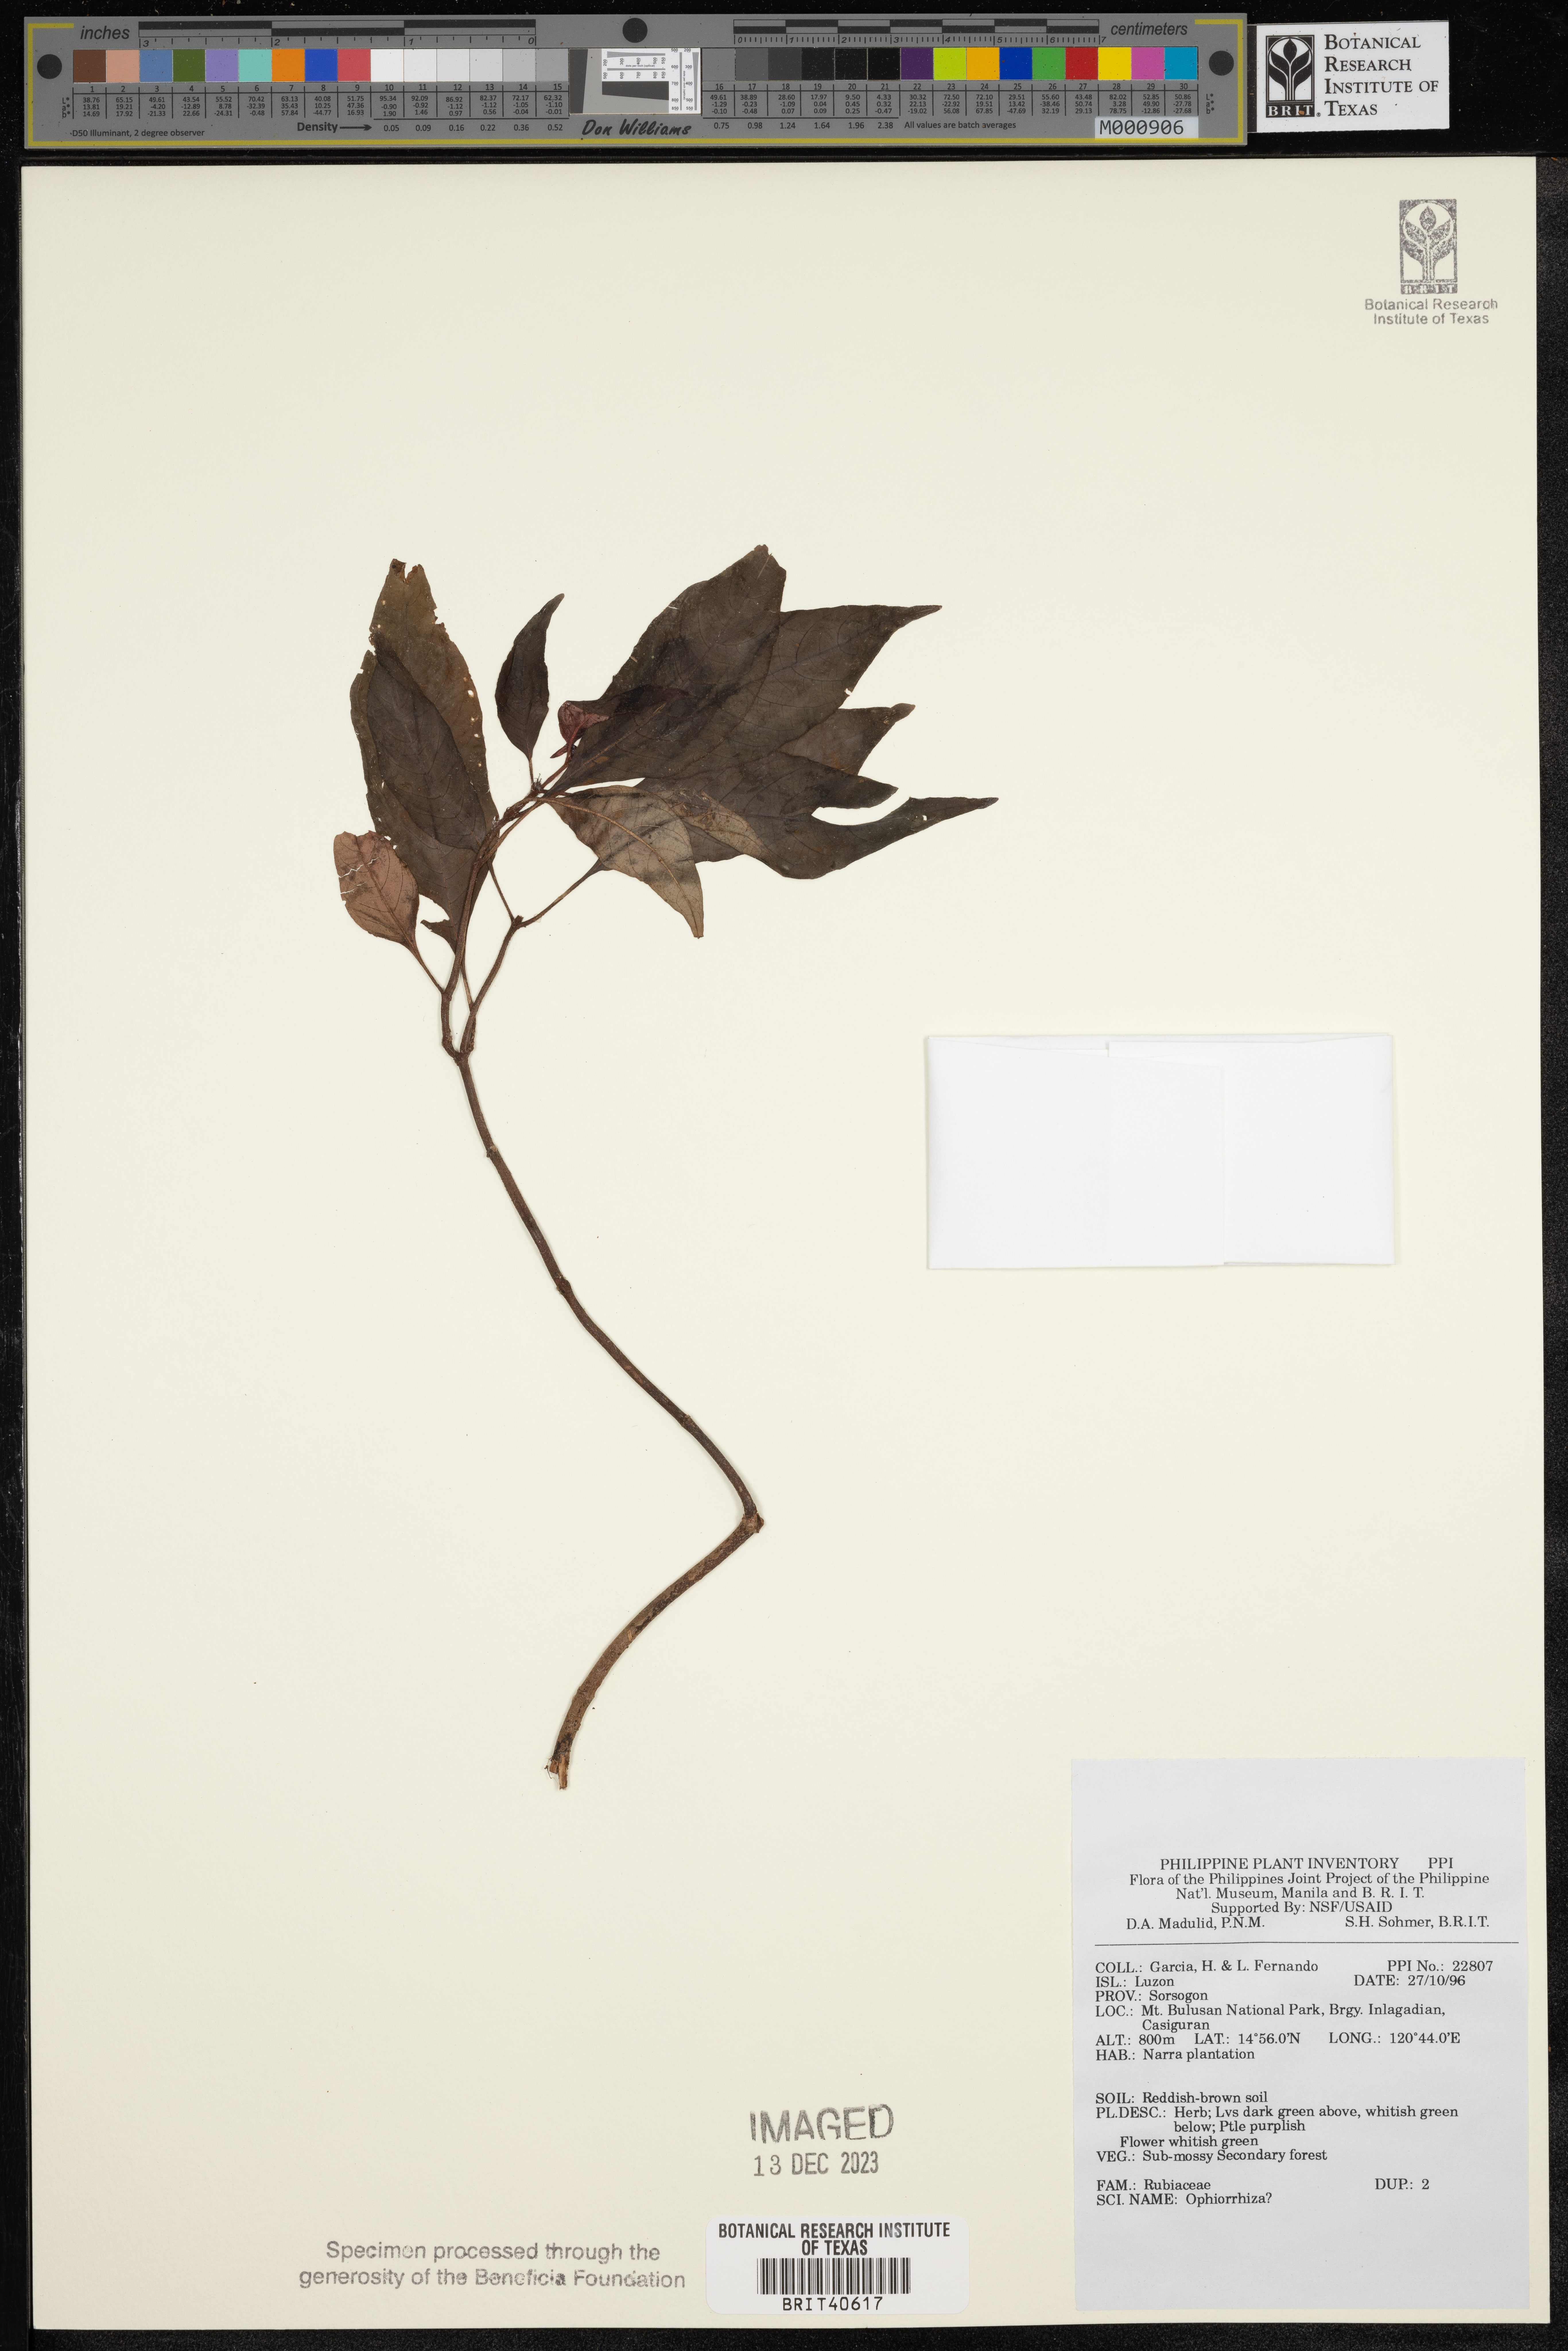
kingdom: Plantae
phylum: Tracheophyta
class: Magnoliopsida
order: Gentianales
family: Rubiaceae
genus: Ophiorrhiza
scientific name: Ophiorrhiza
